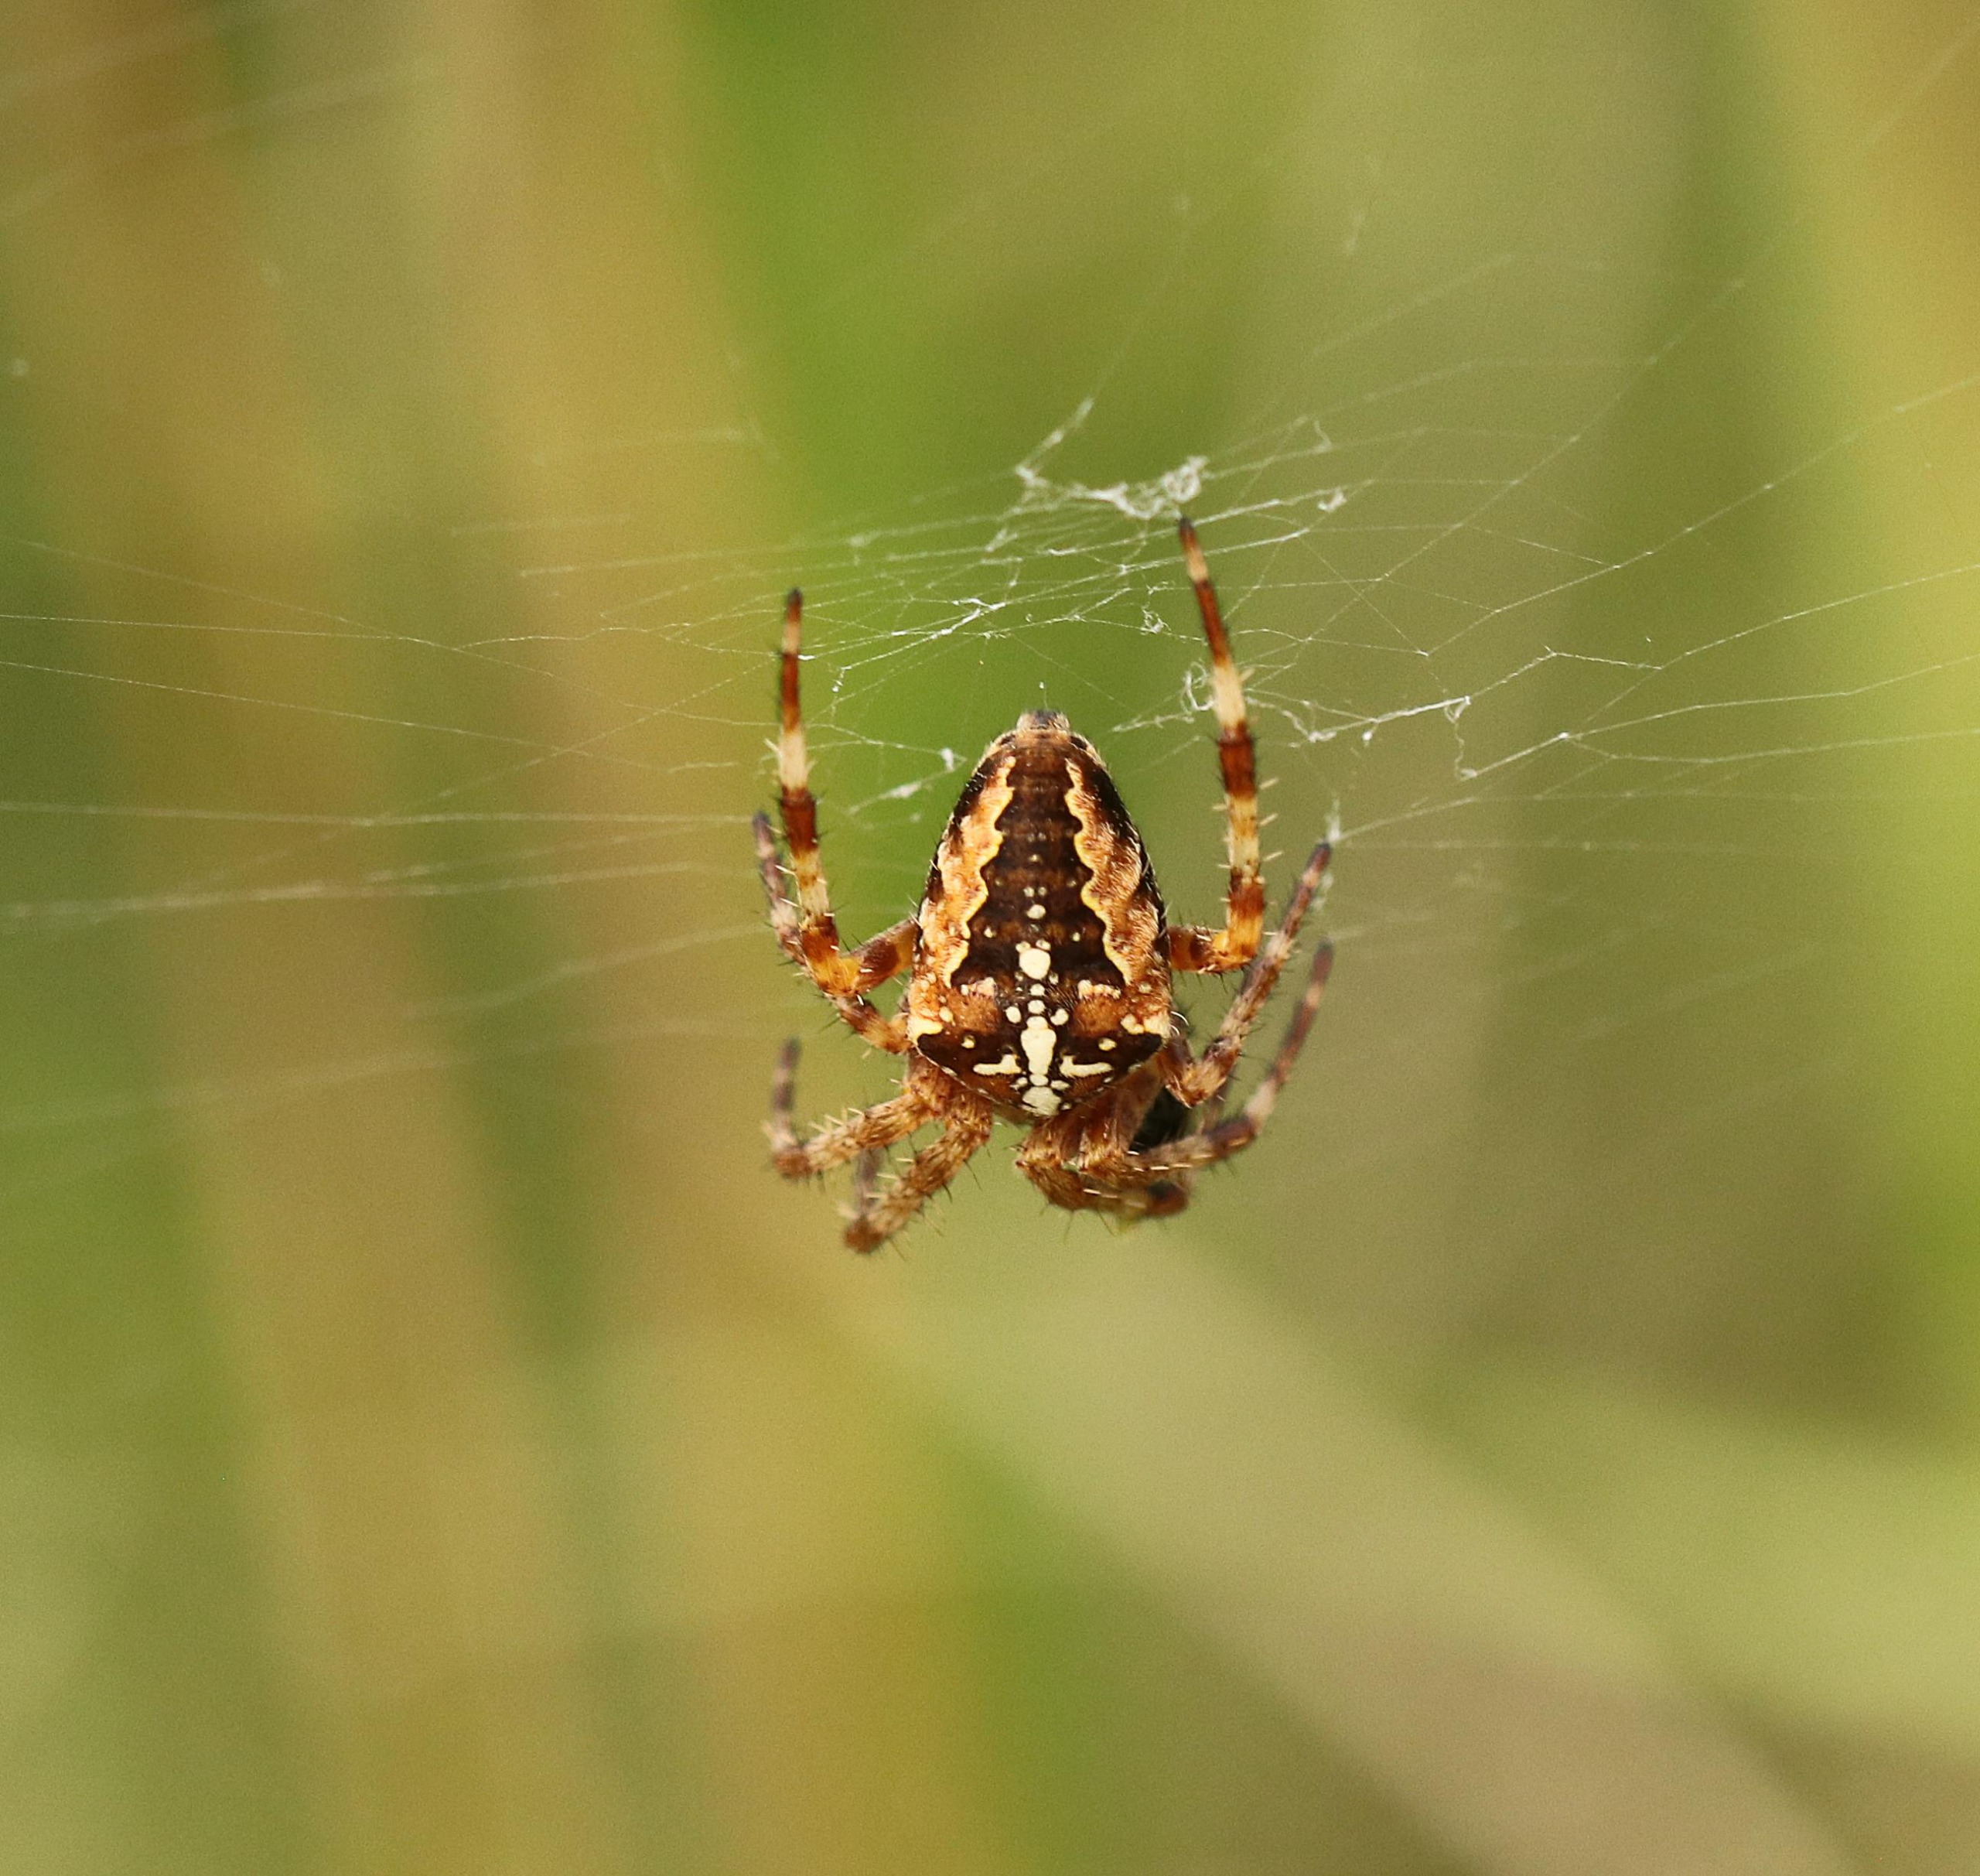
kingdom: Animalia
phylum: Arthropoda
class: Arachnida
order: Araneae
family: Araneidae
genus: Araneus
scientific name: Araneus diadematus
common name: Korsedderkop
